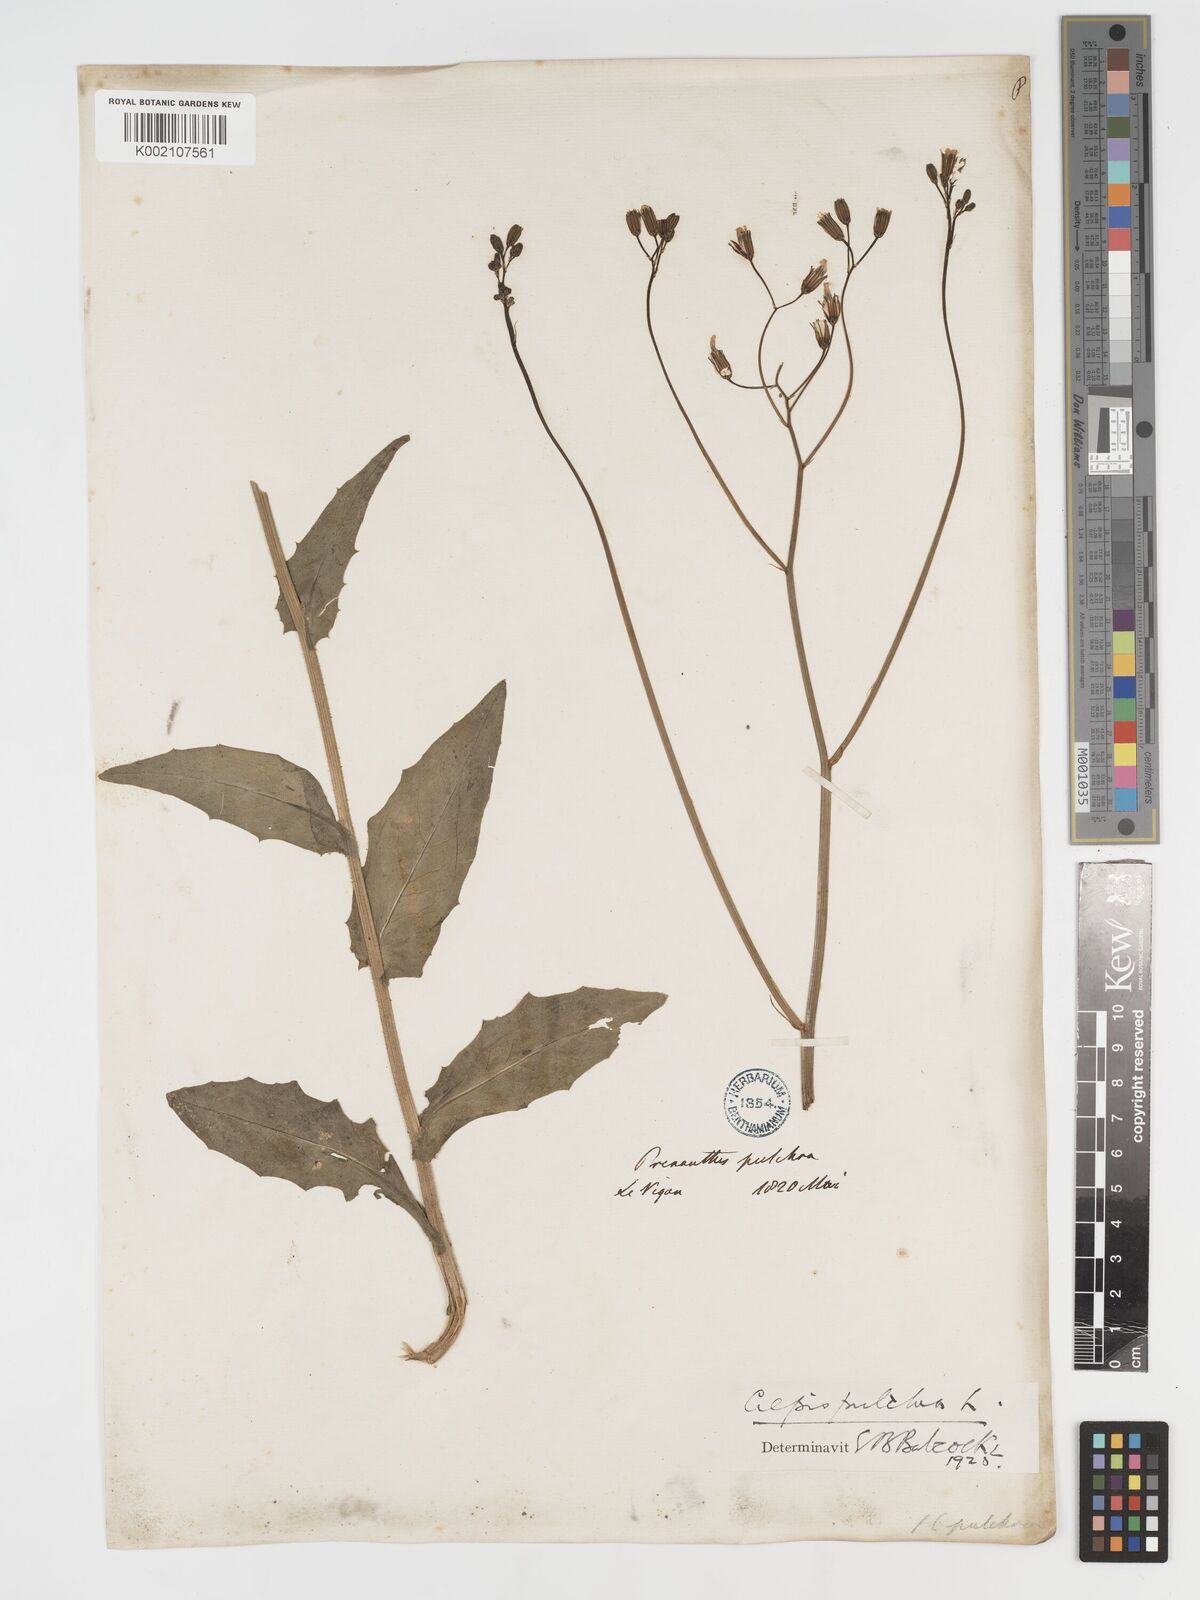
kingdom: Plantae
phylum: Tracheophyta
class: Magnoliopsida
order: Asterales
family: Asteraceae
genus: Crepis
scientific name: Crepis pulchra
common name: Hawk's-beard
